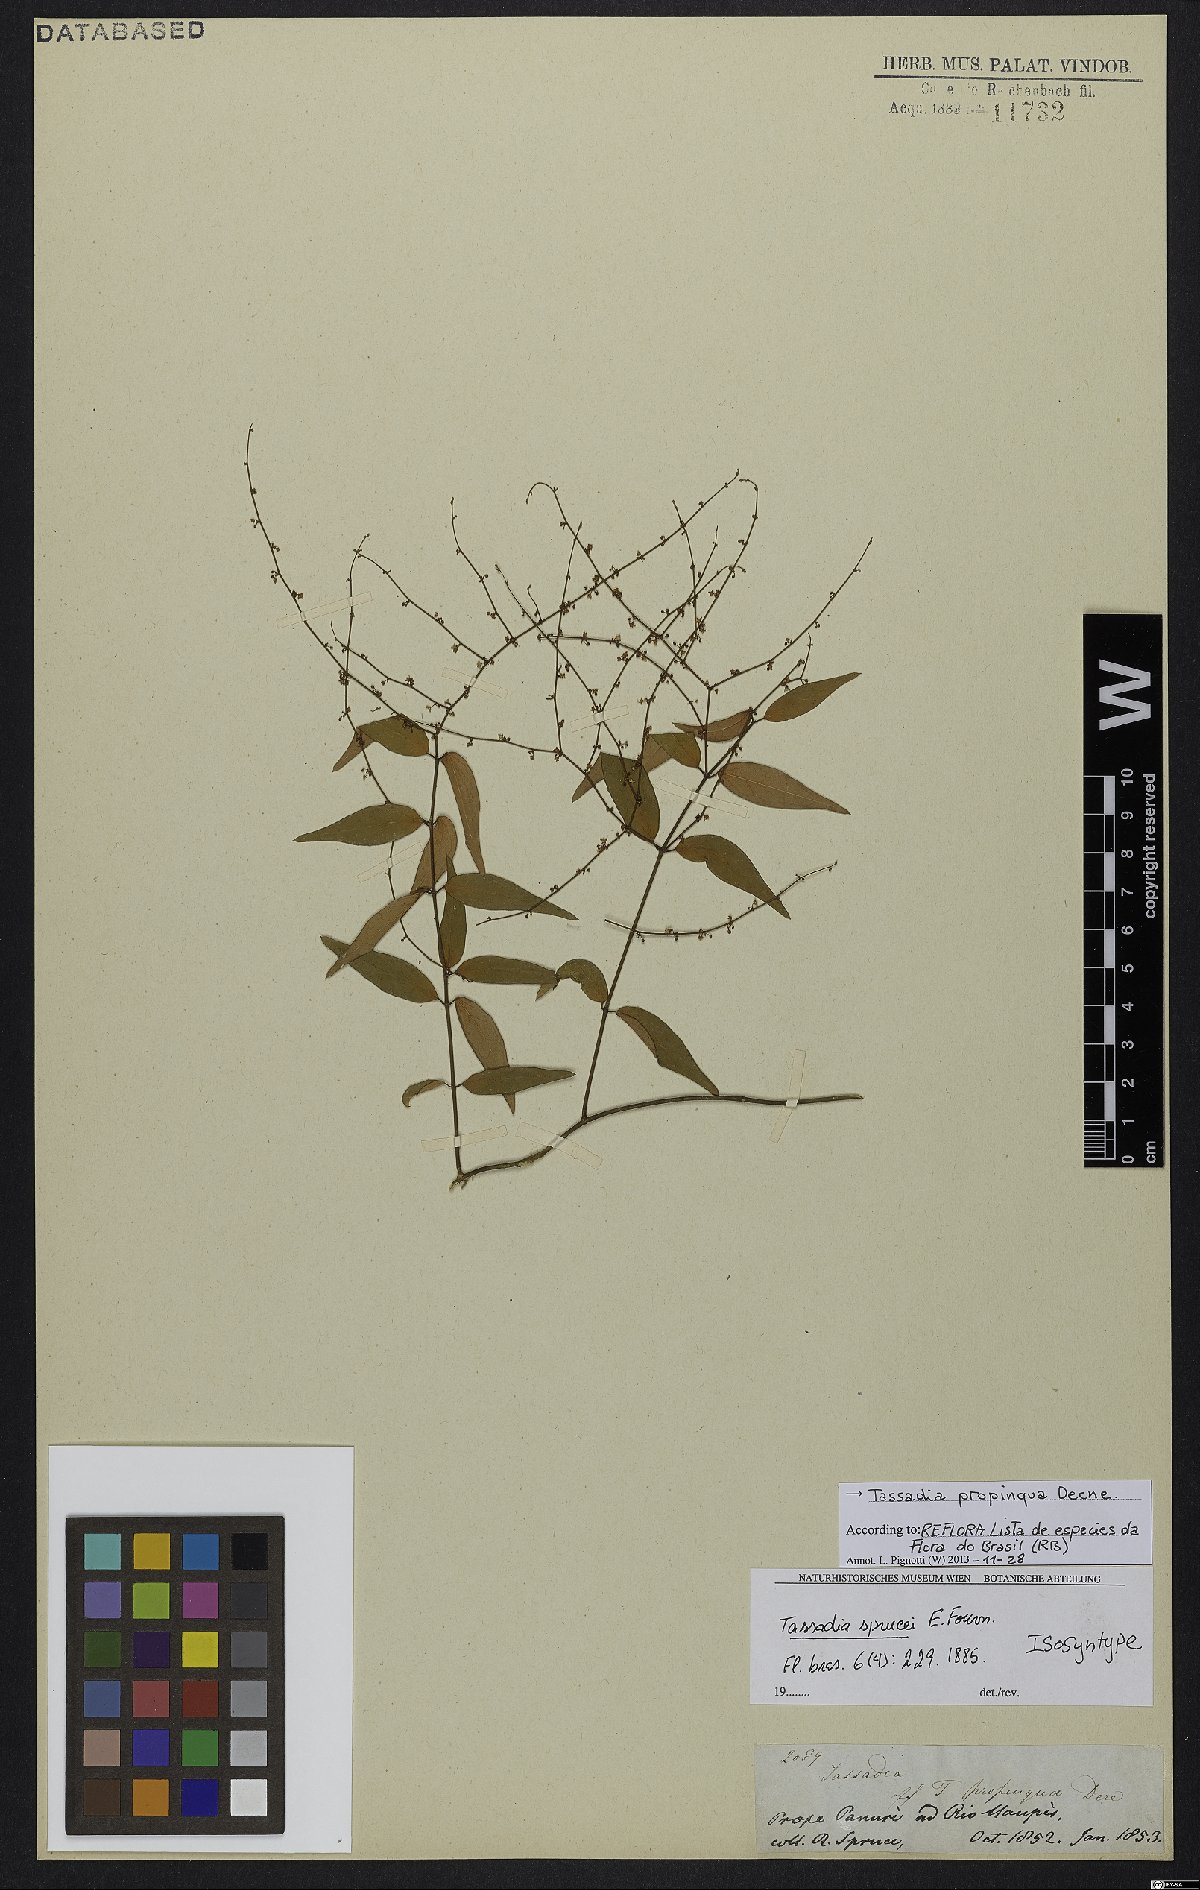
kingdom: Plantae
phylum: Tracheophyta
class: Magnoliopsida
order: Gentianales
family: Apocynaceae
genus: Tassadia
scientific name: Tassadia propinqua
